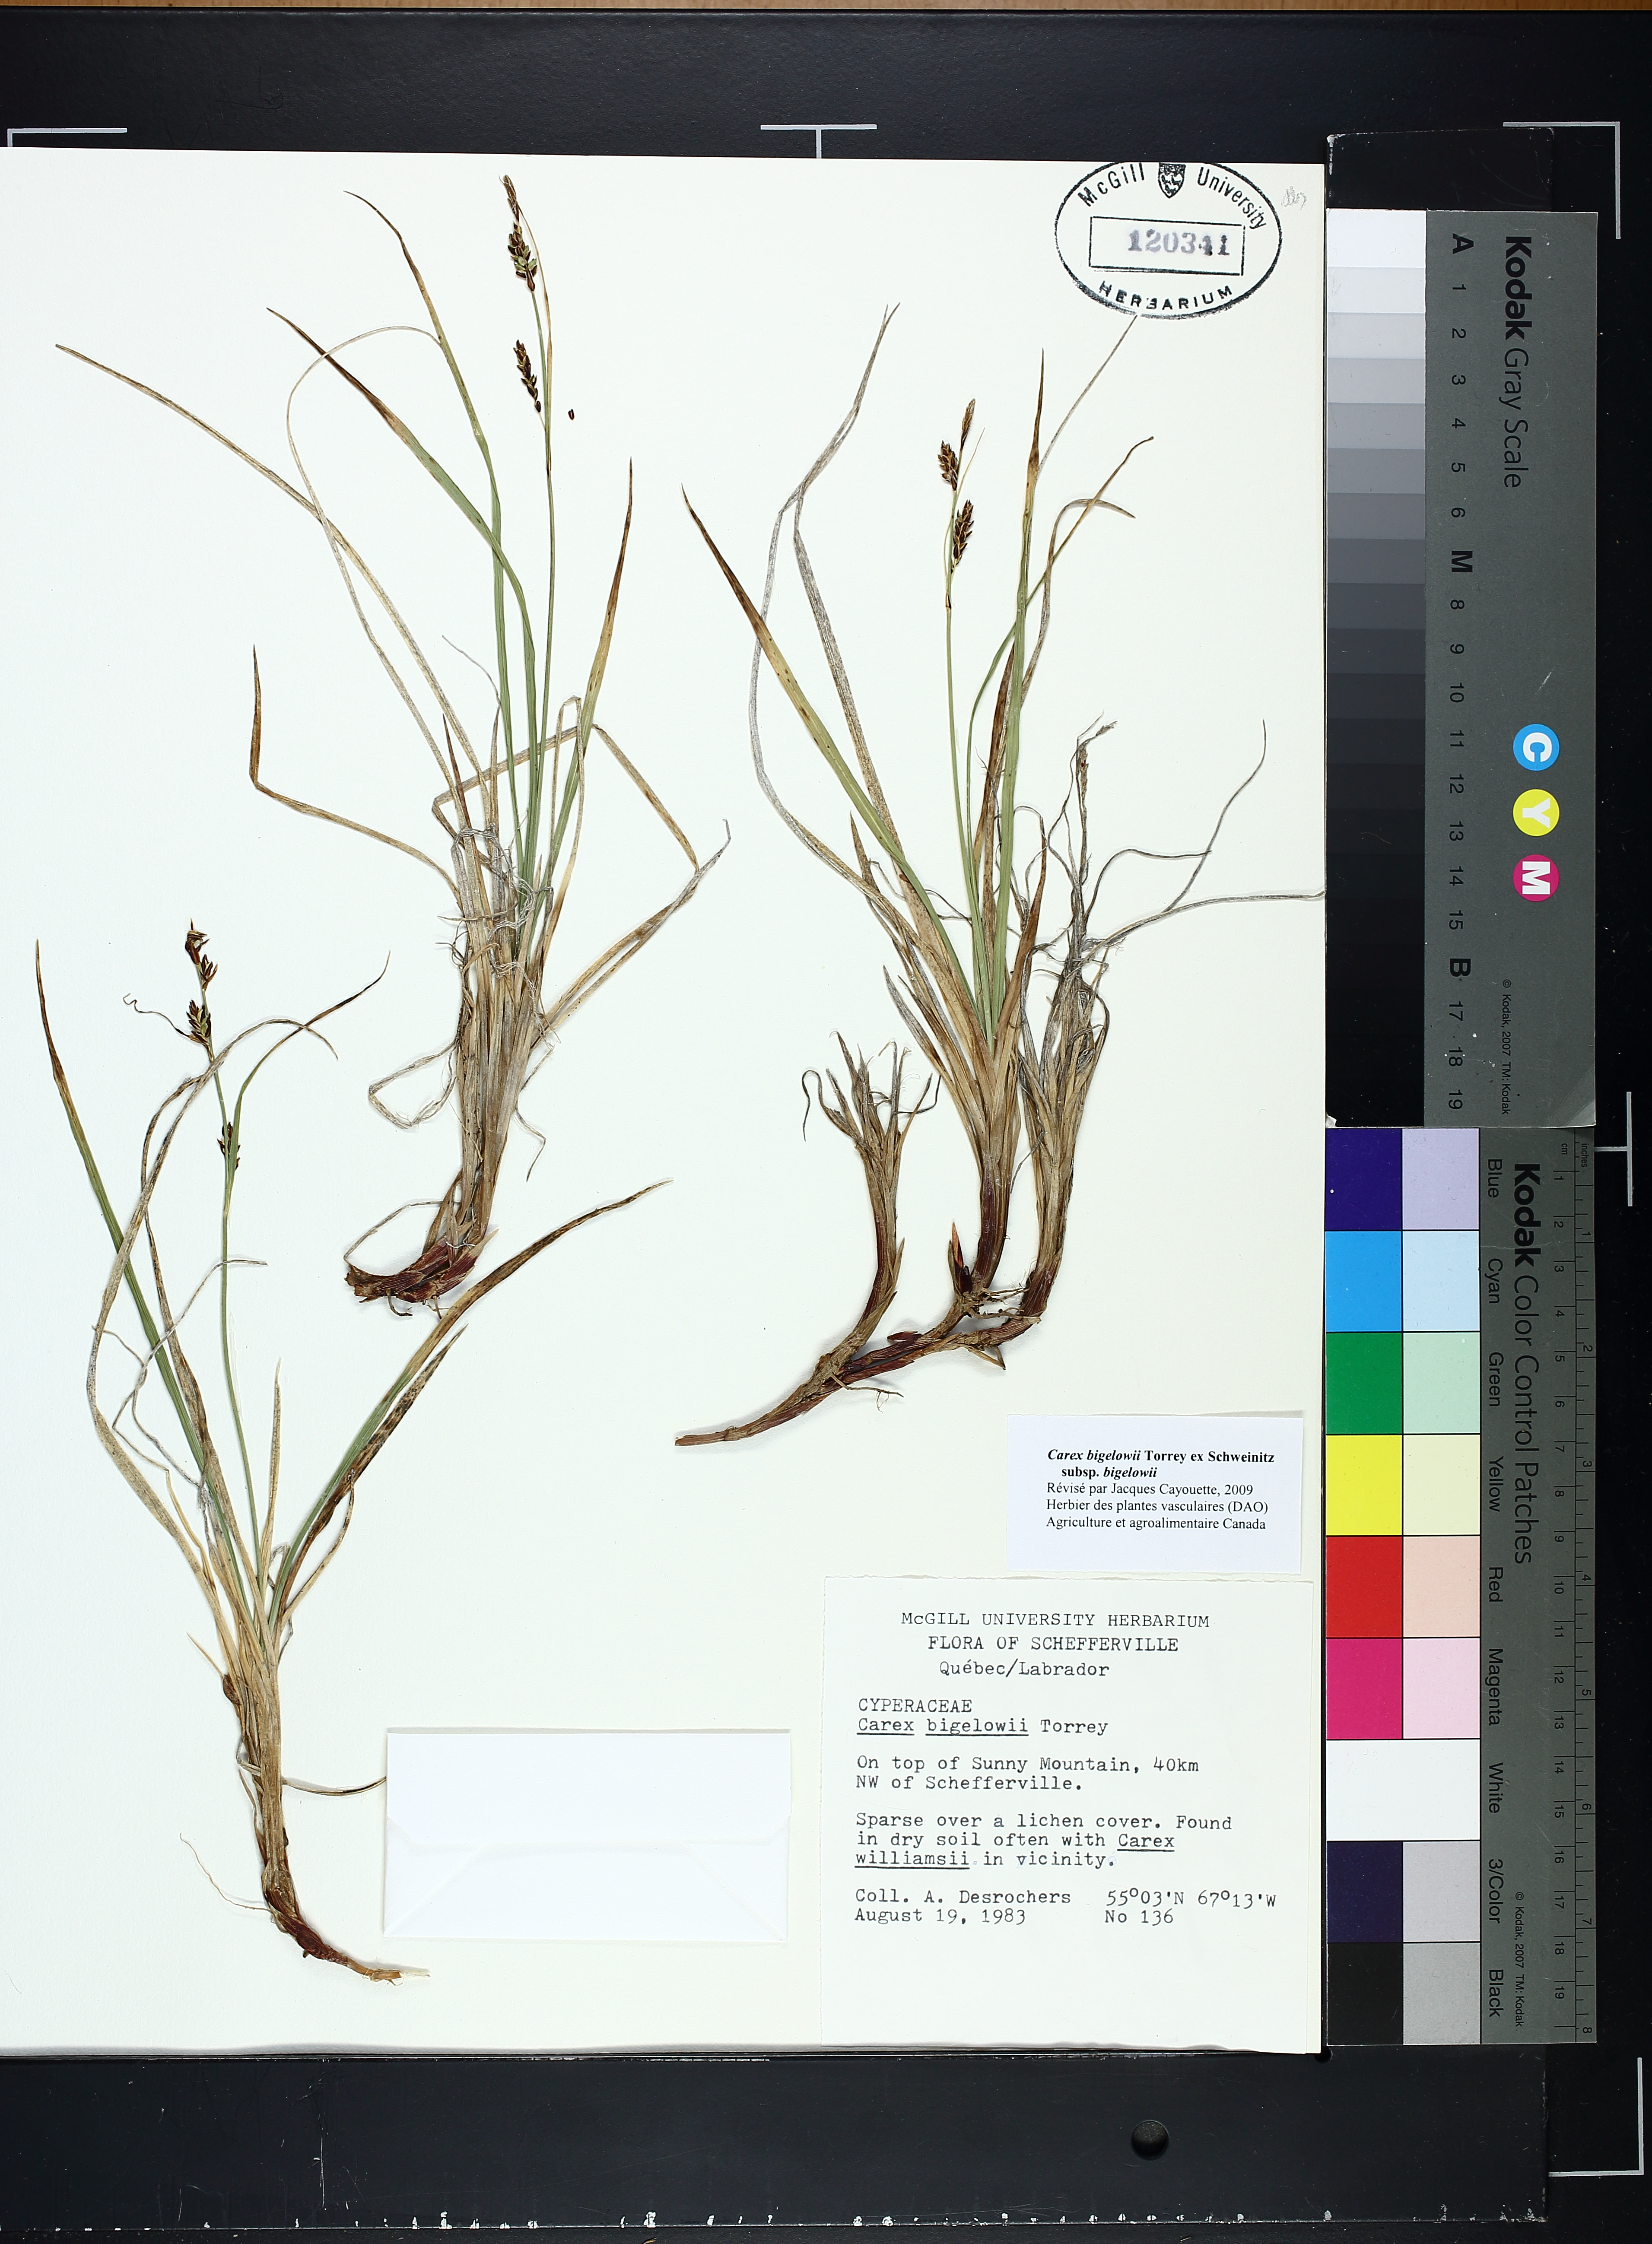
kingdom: Plantae
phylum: Tracheophyta
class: Liliopsida
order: Poales
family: Cyperaceae
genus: Carex
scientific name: Carex bigelowii
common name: Stiff sedge
